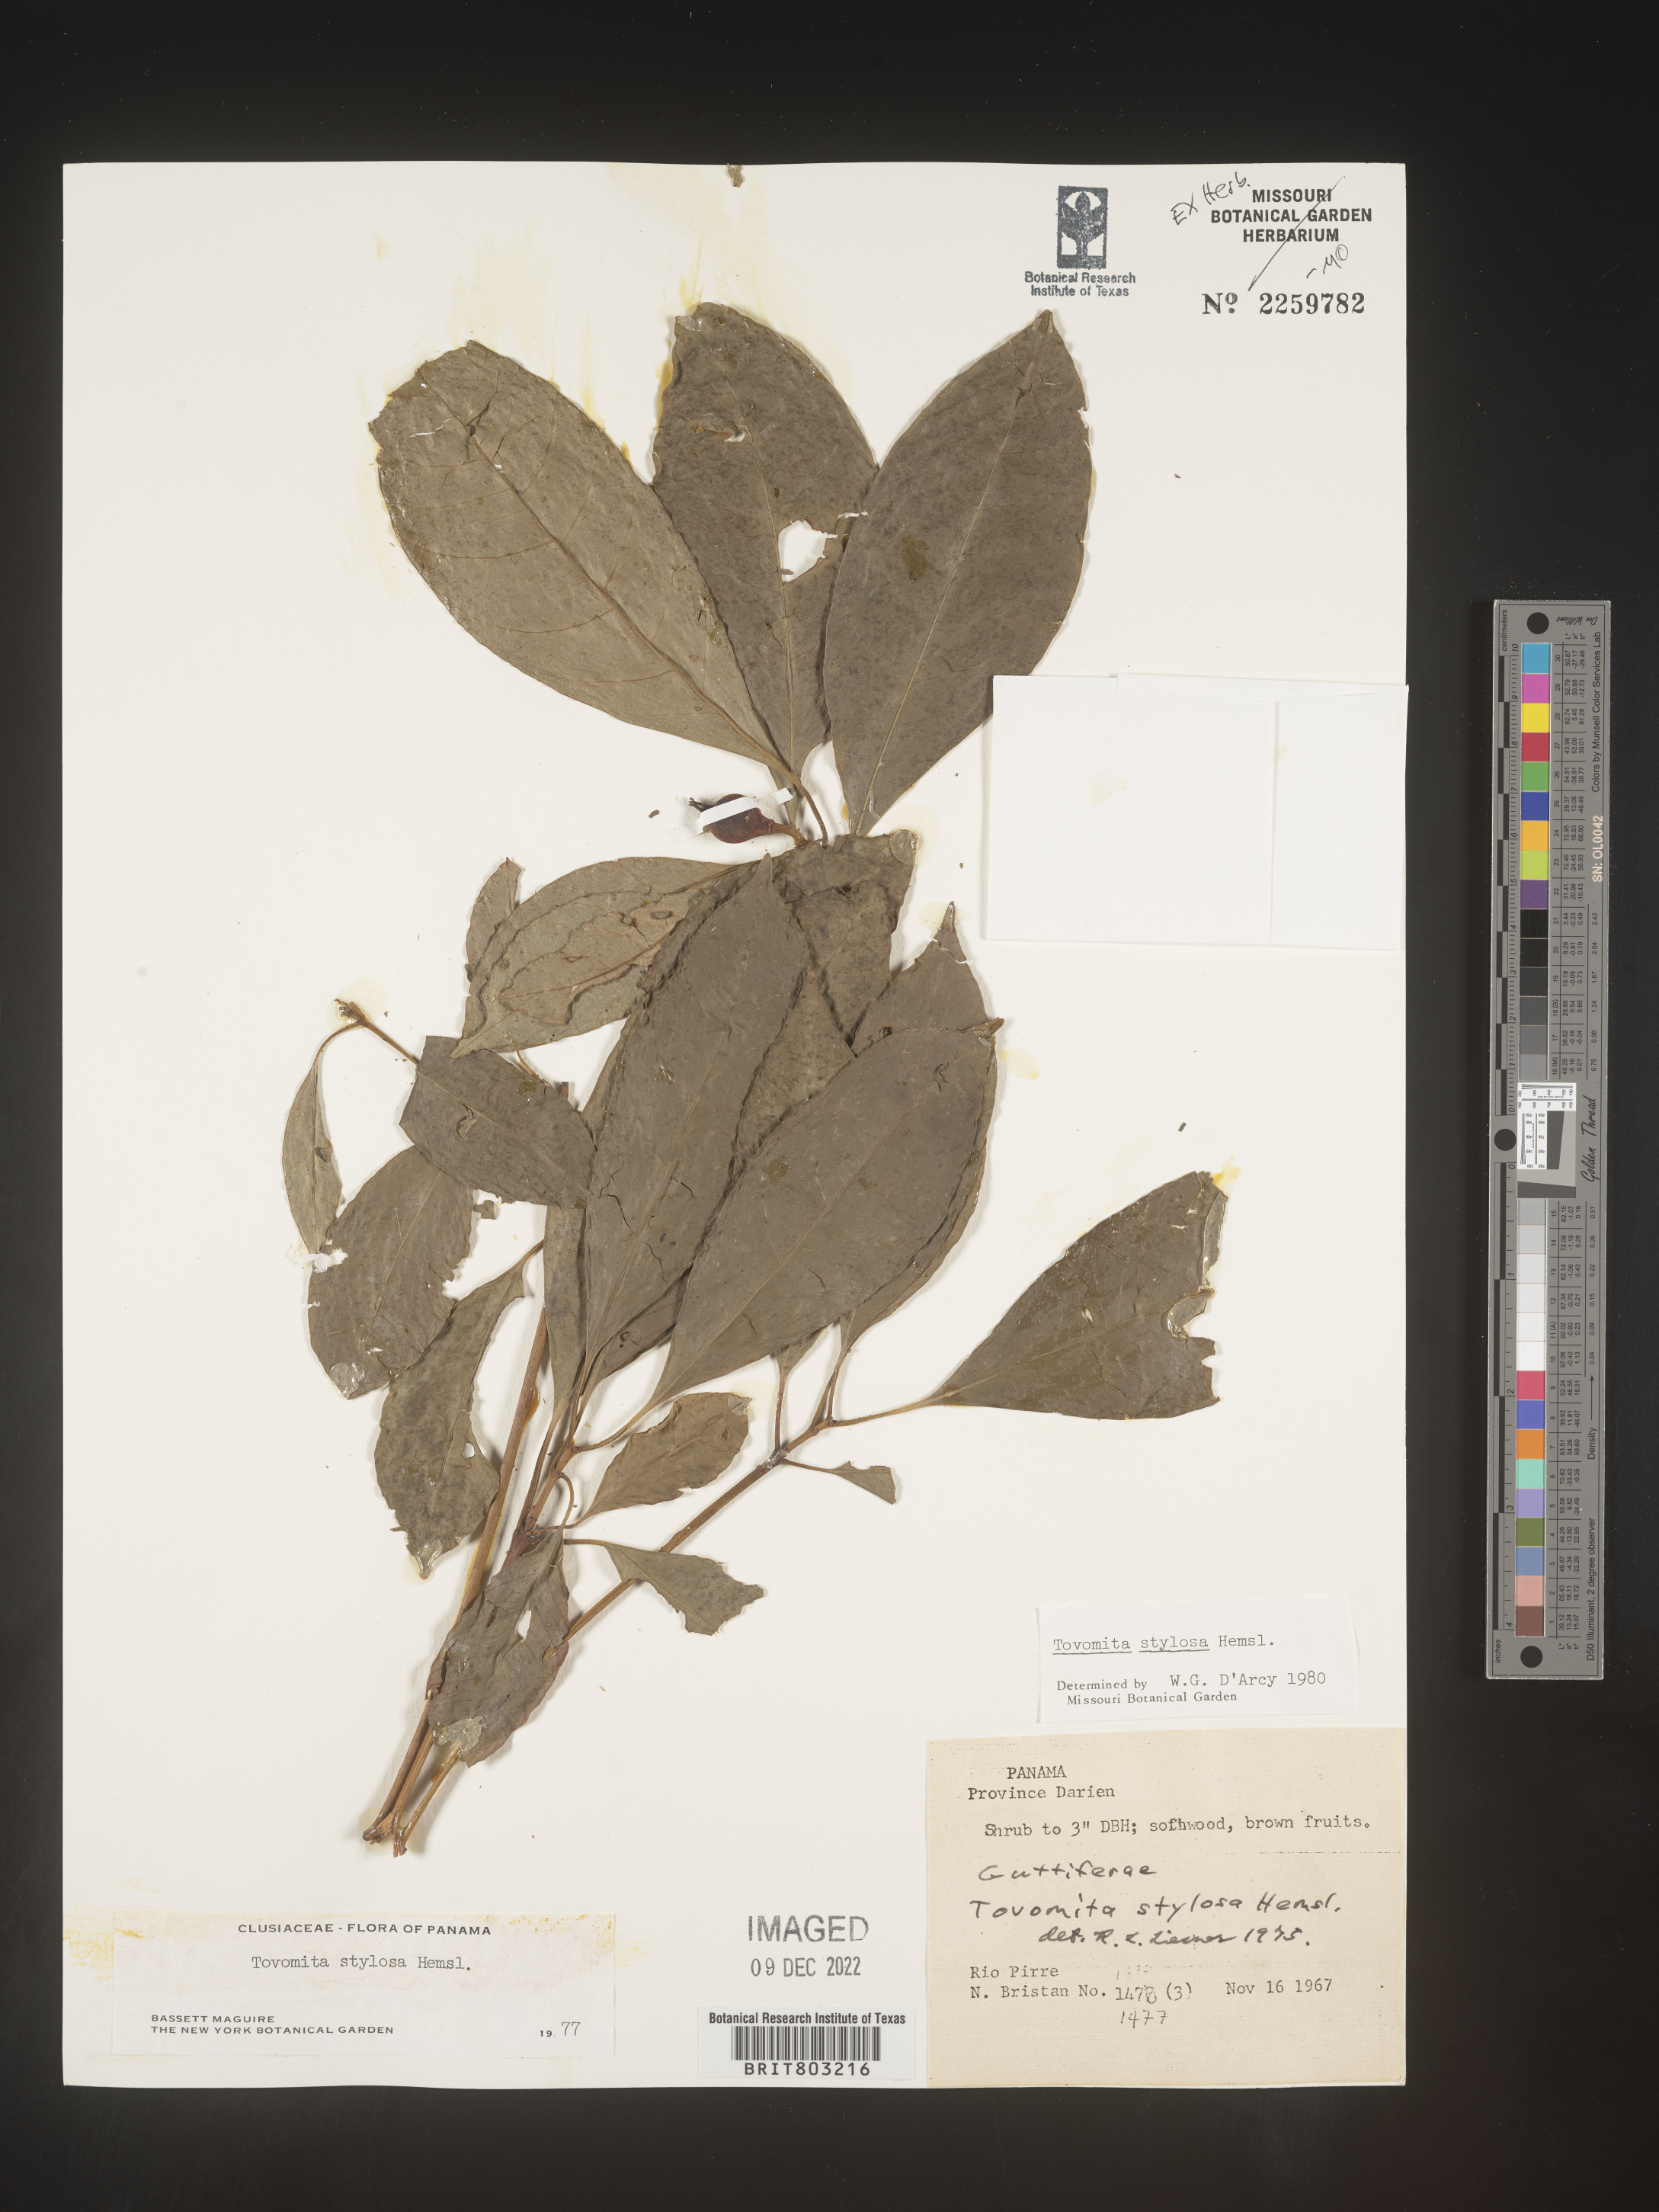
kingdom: Plantae
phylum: Tracheophyta
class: Magnoliopsida
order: Malpighiales
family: Clusiaceae
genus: Tovomita
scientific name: Tovomita
